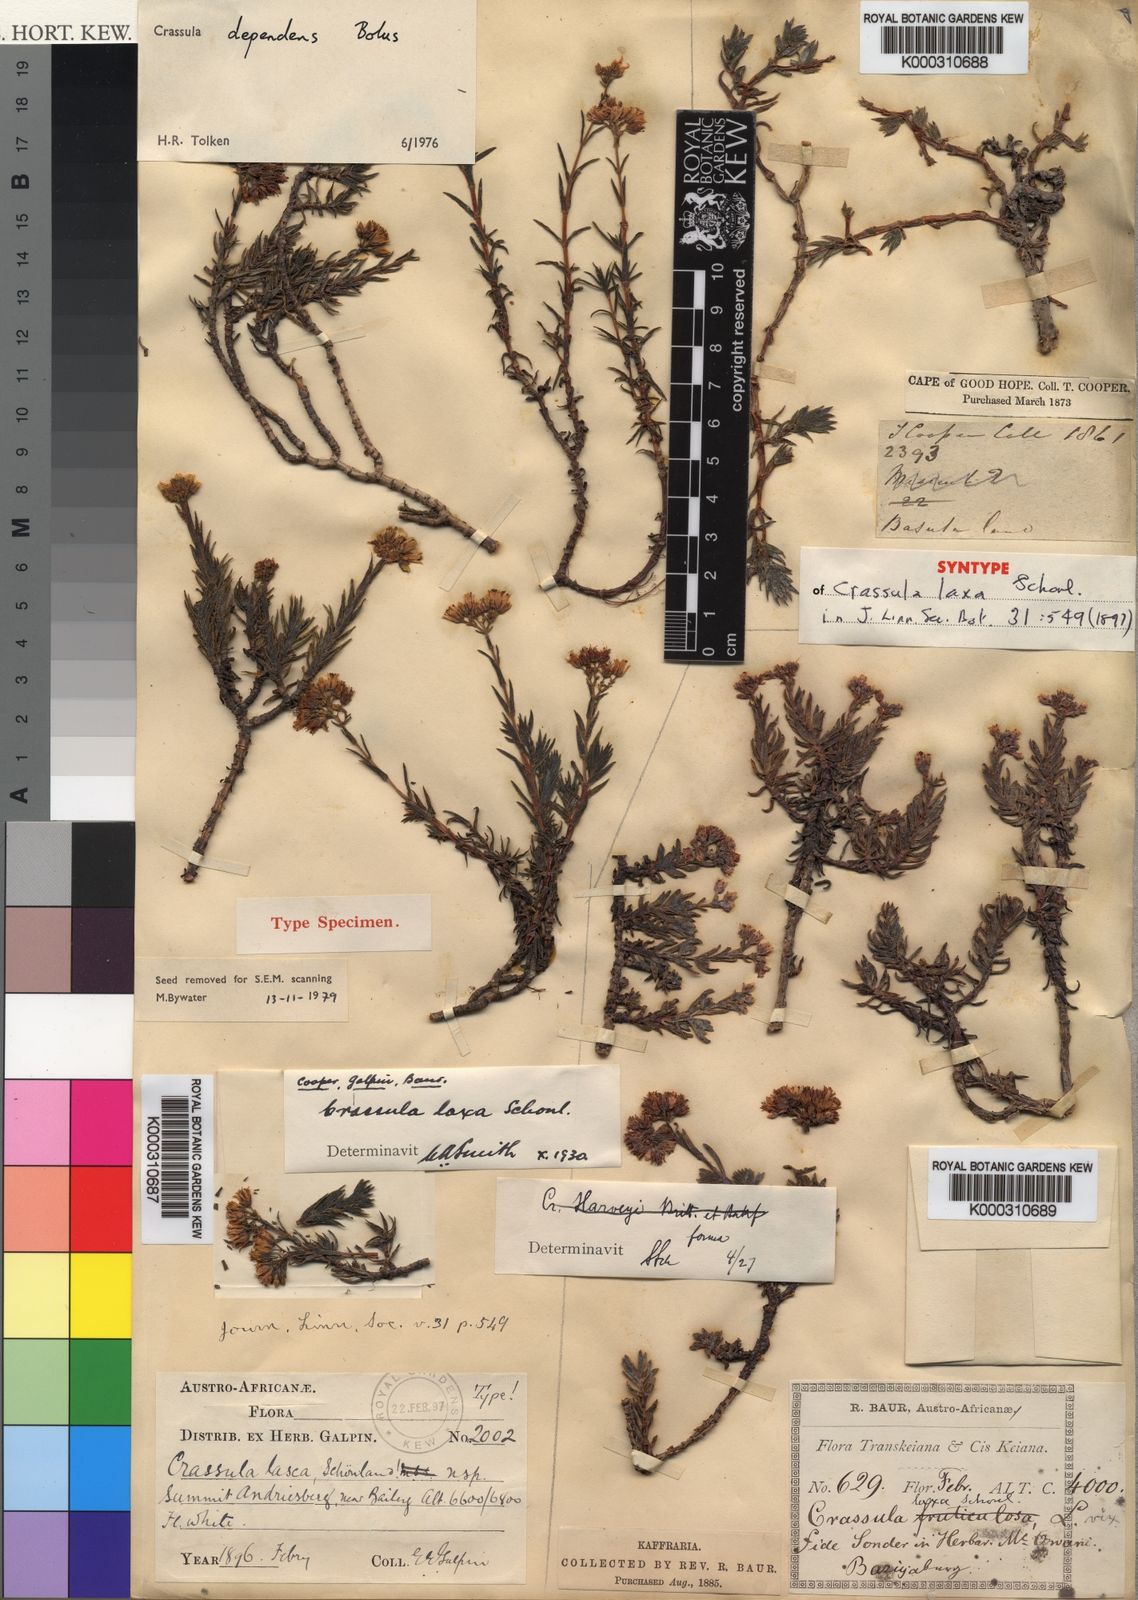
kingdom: Plantae
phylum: Tracheophyta
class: Magnoliopsida
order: Saxifragales
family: Crassulaceae
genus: Crassula
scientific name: Crassula dependens
